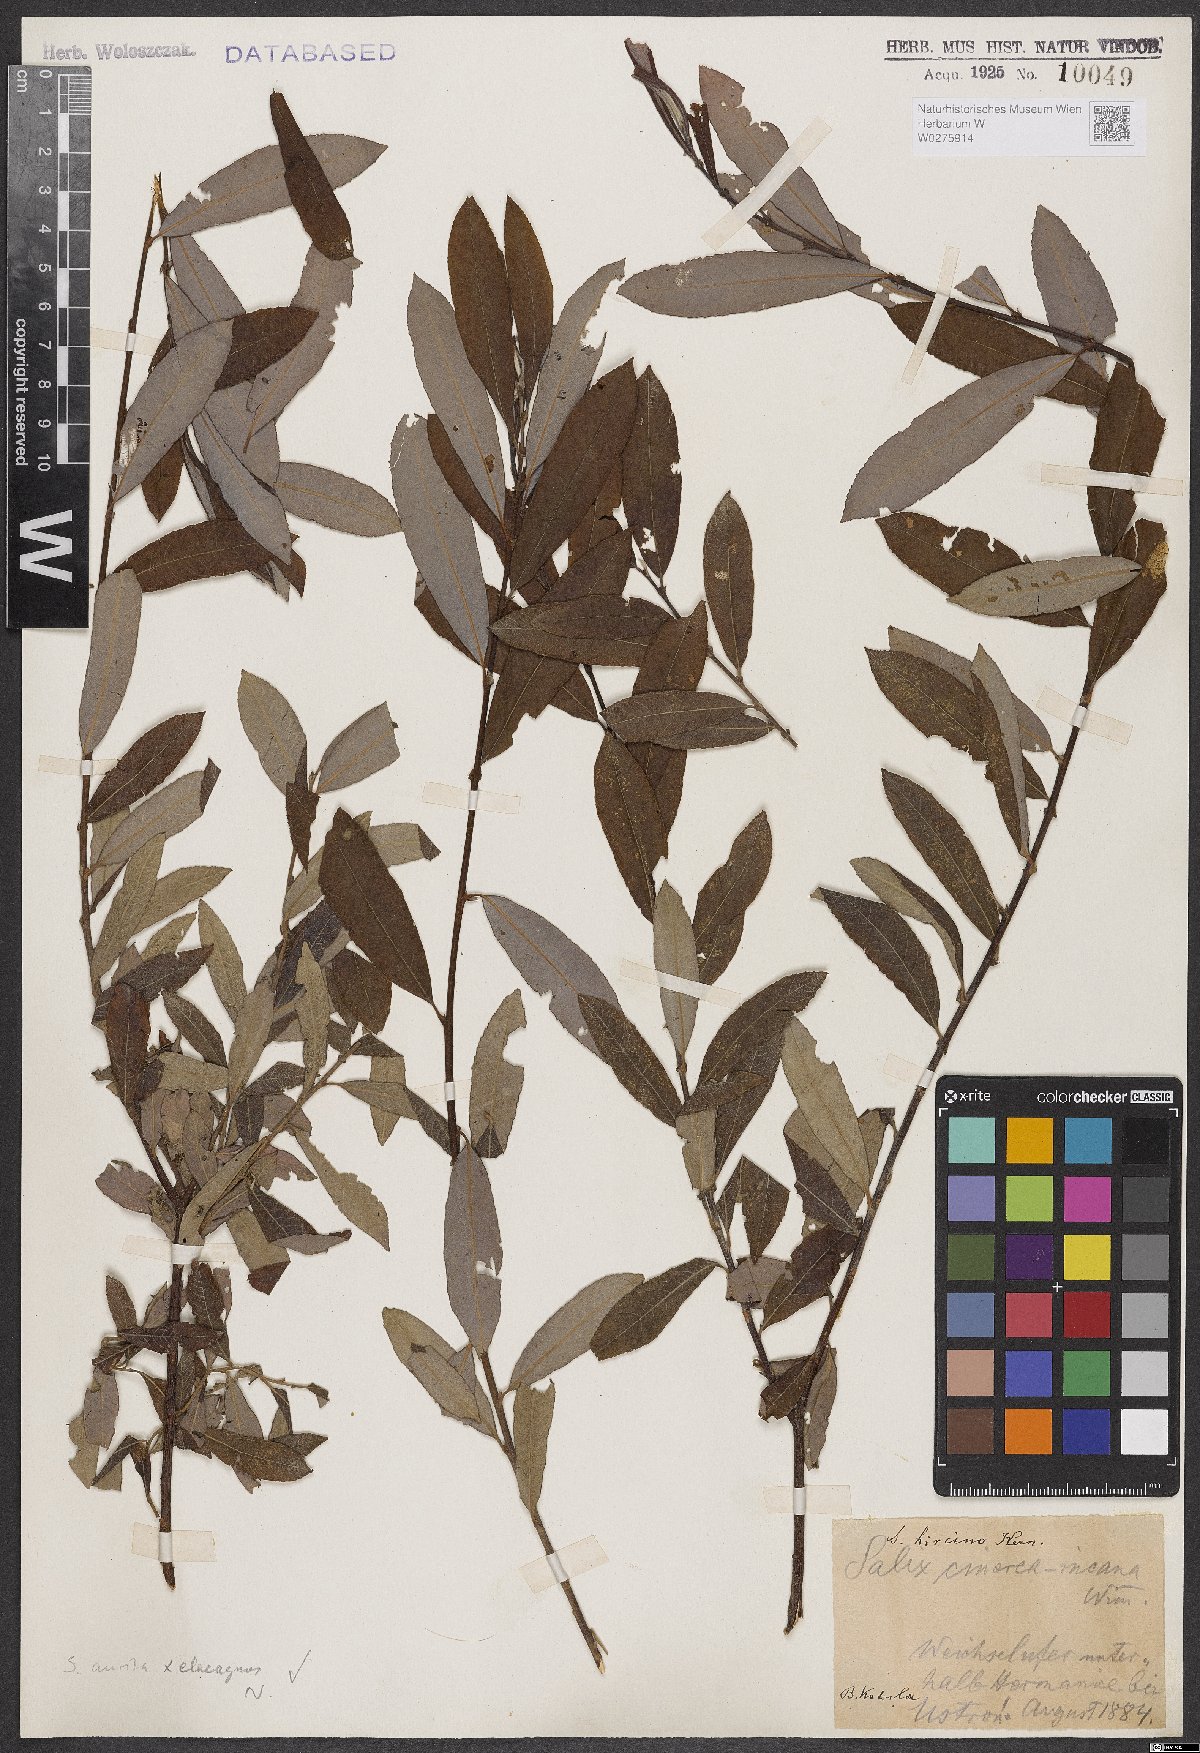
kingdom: Plantae
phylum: Tracheophyta
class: Magnoliopsida
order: Malpighiales
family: Salicaceae
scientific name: Salicaceae
